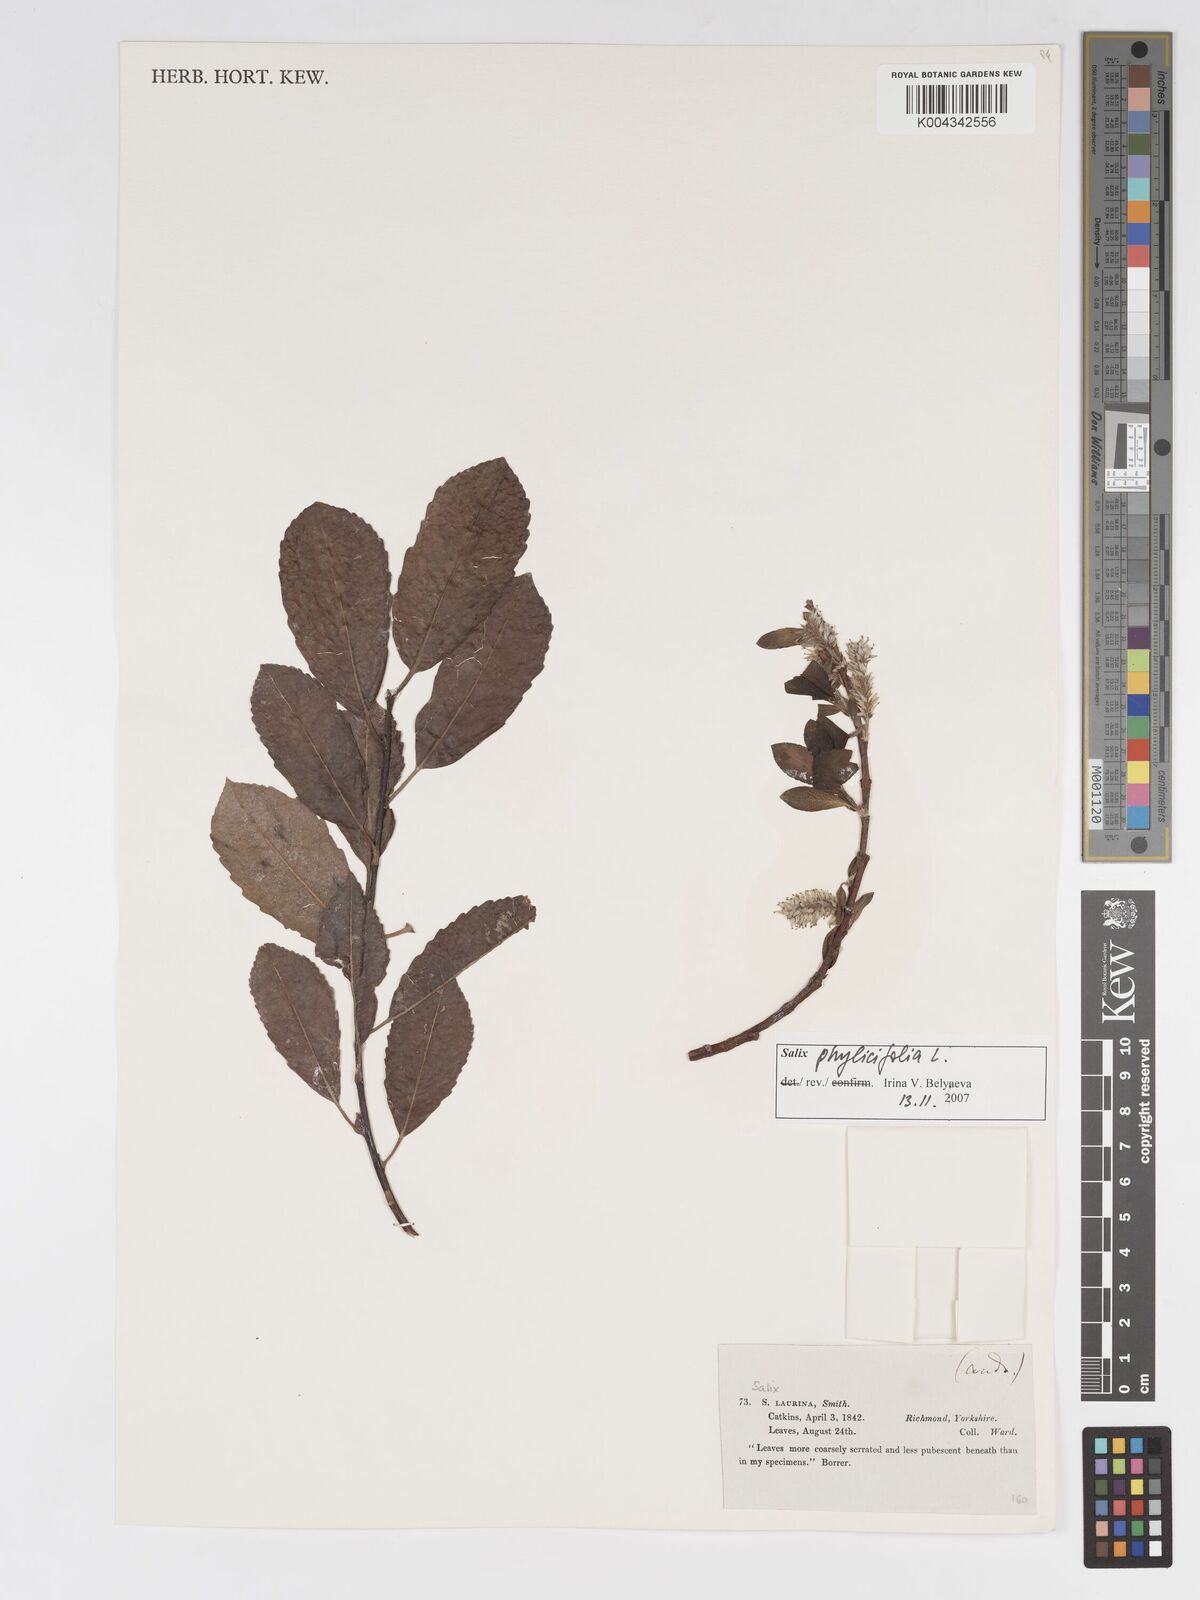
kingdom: Plantae
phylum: Tracheophyta
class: Magnoliopsida
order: Malpighiales
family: Salicaceae
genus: Salix
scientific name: Salix cinerea
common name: Common sallow
